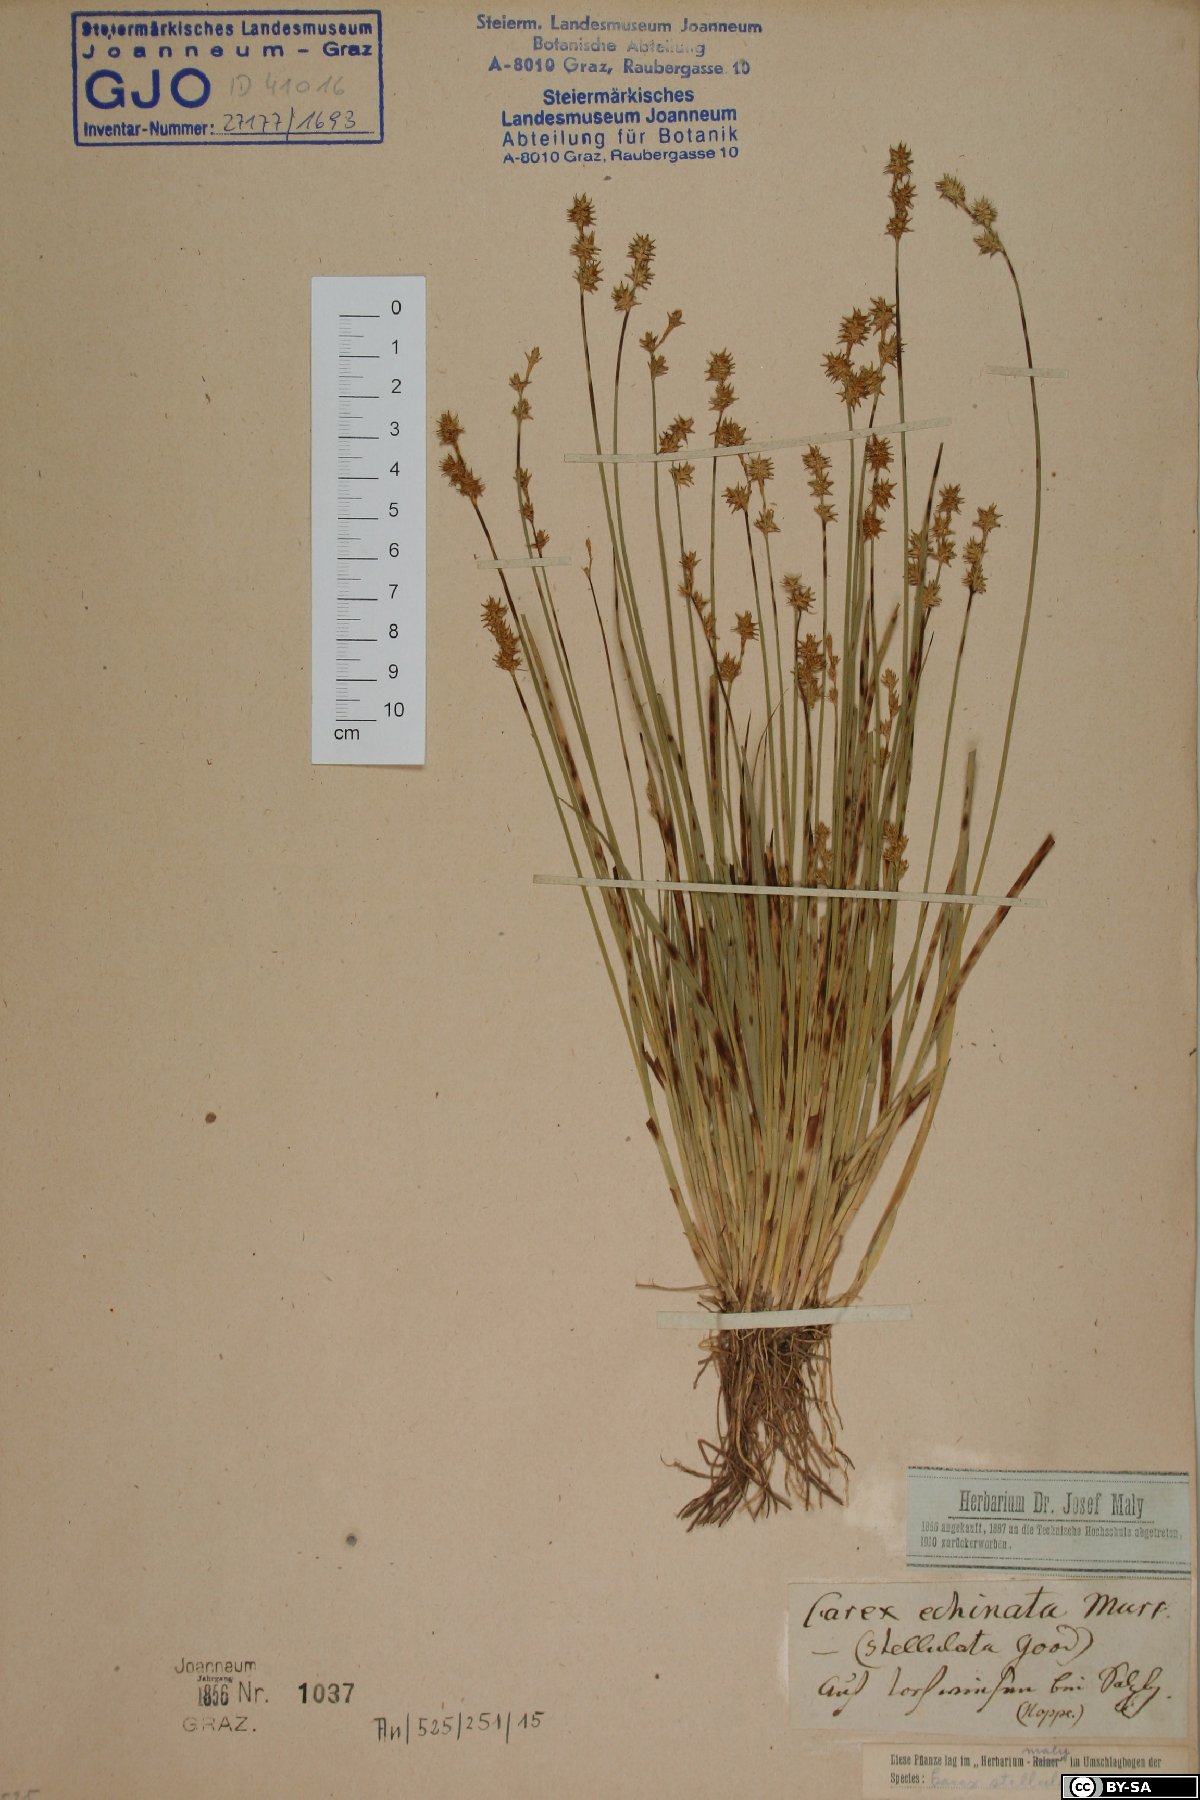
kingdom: Plantae
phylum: Tracheophyta
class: Liliopsida
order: Poales
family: Cyperaceae
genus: Carex
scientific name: Carex echinata
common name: Star sedge
